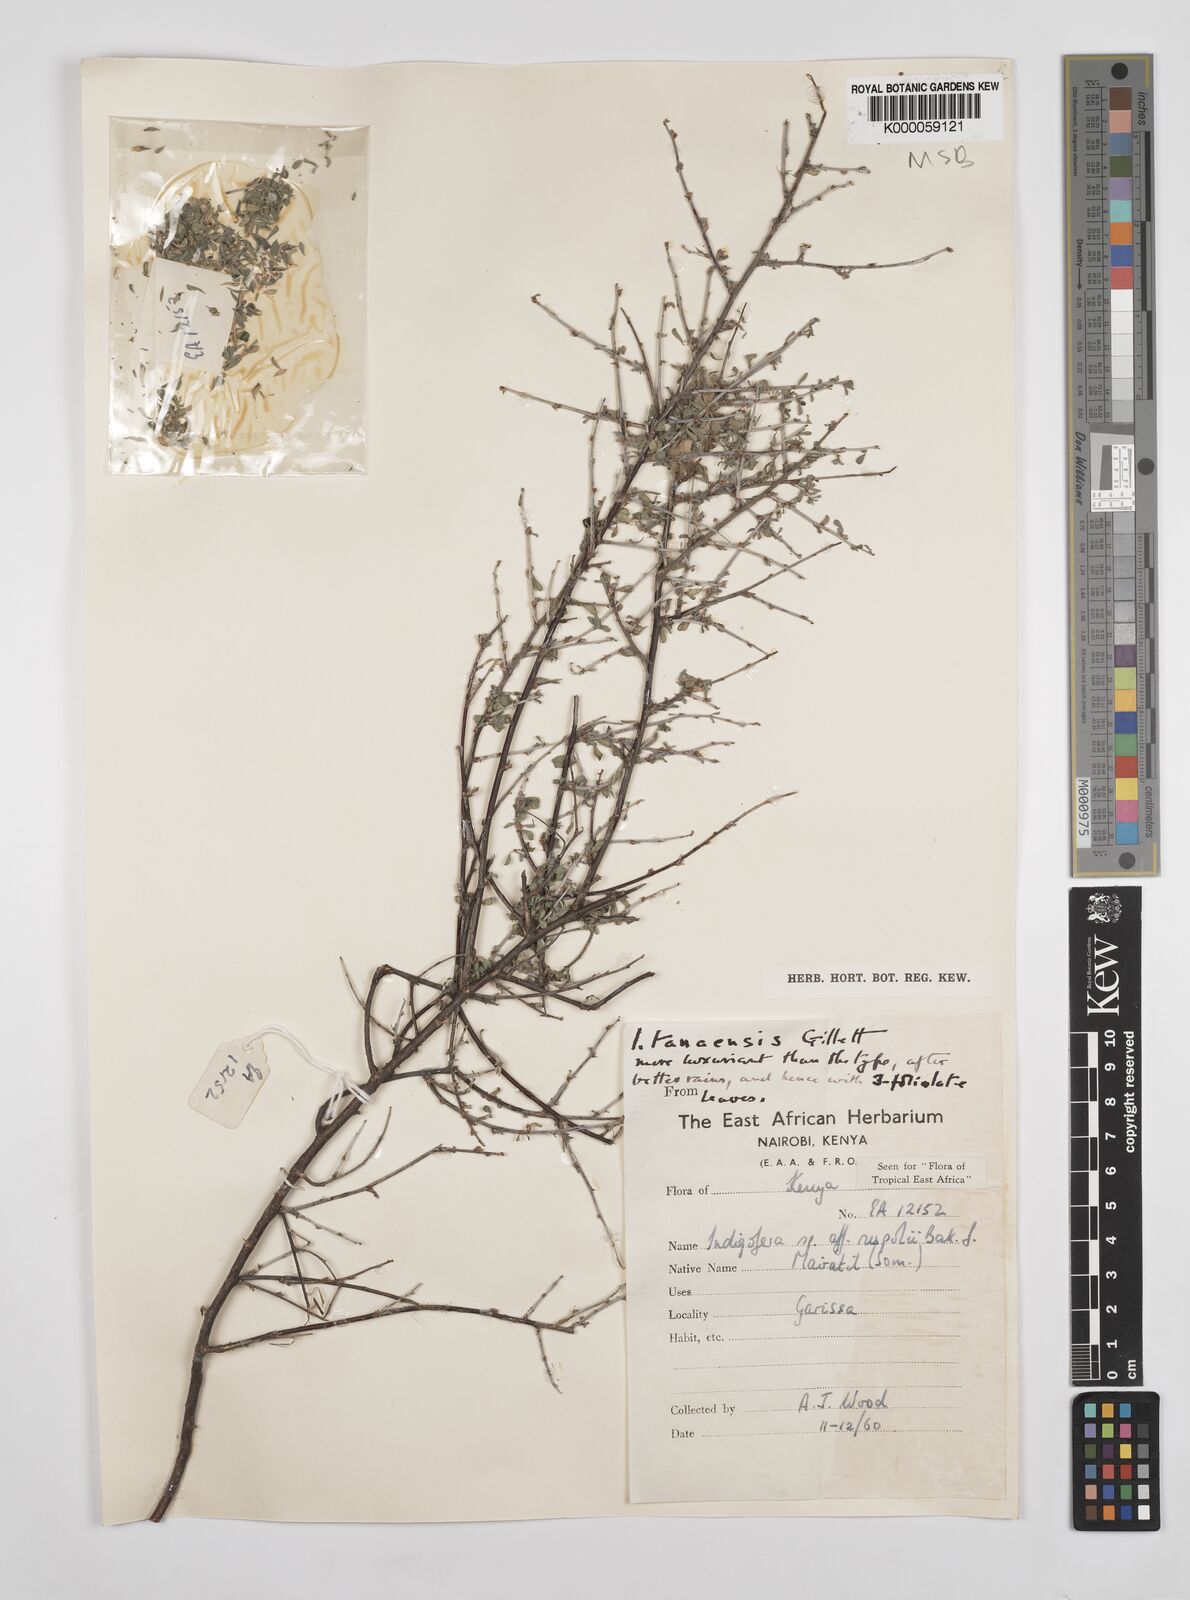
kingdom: Plantae
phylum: Tracheophyta
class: Magnoliopsida
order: Fabales
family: Fabaceae
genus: Indigofera
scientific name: Indigofera tanaensis
